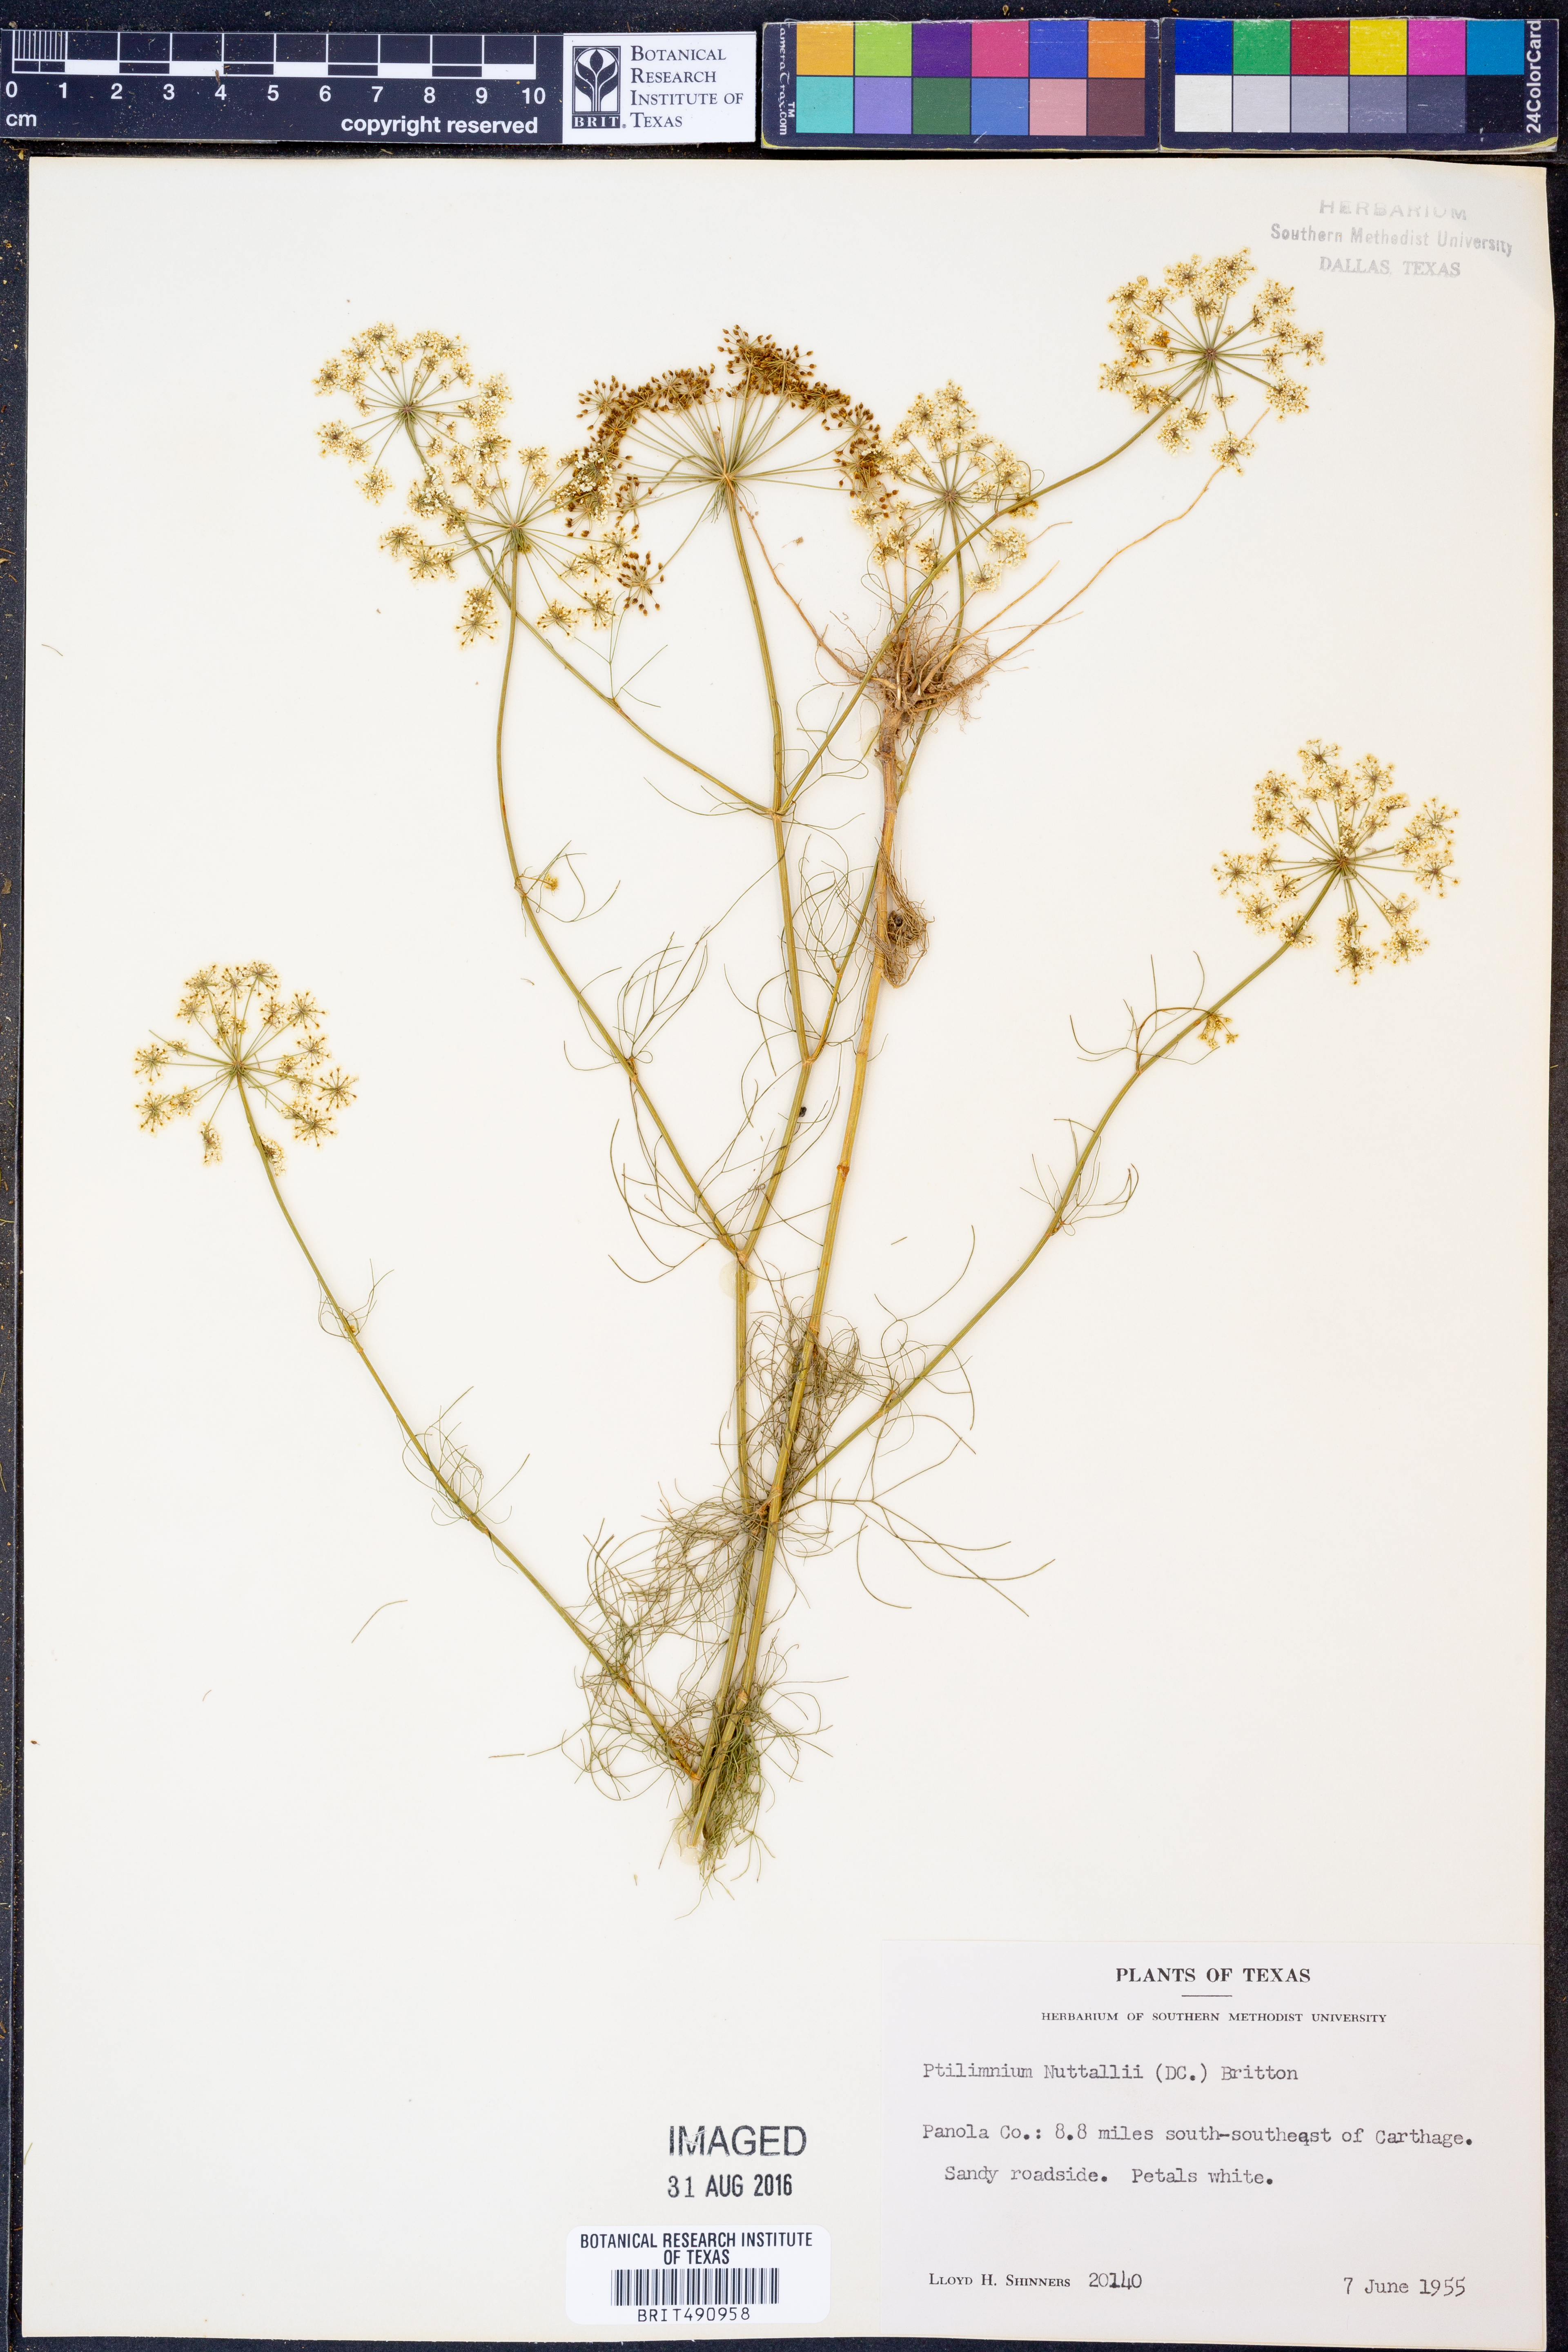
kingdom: Plantae
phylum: Tracheophyta
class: Magnoliopsida
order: Apiales
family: Apiaceae
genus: Ptilimnium
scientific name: Ptilimnium nuttallii
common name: Ozark bishop's-weed
